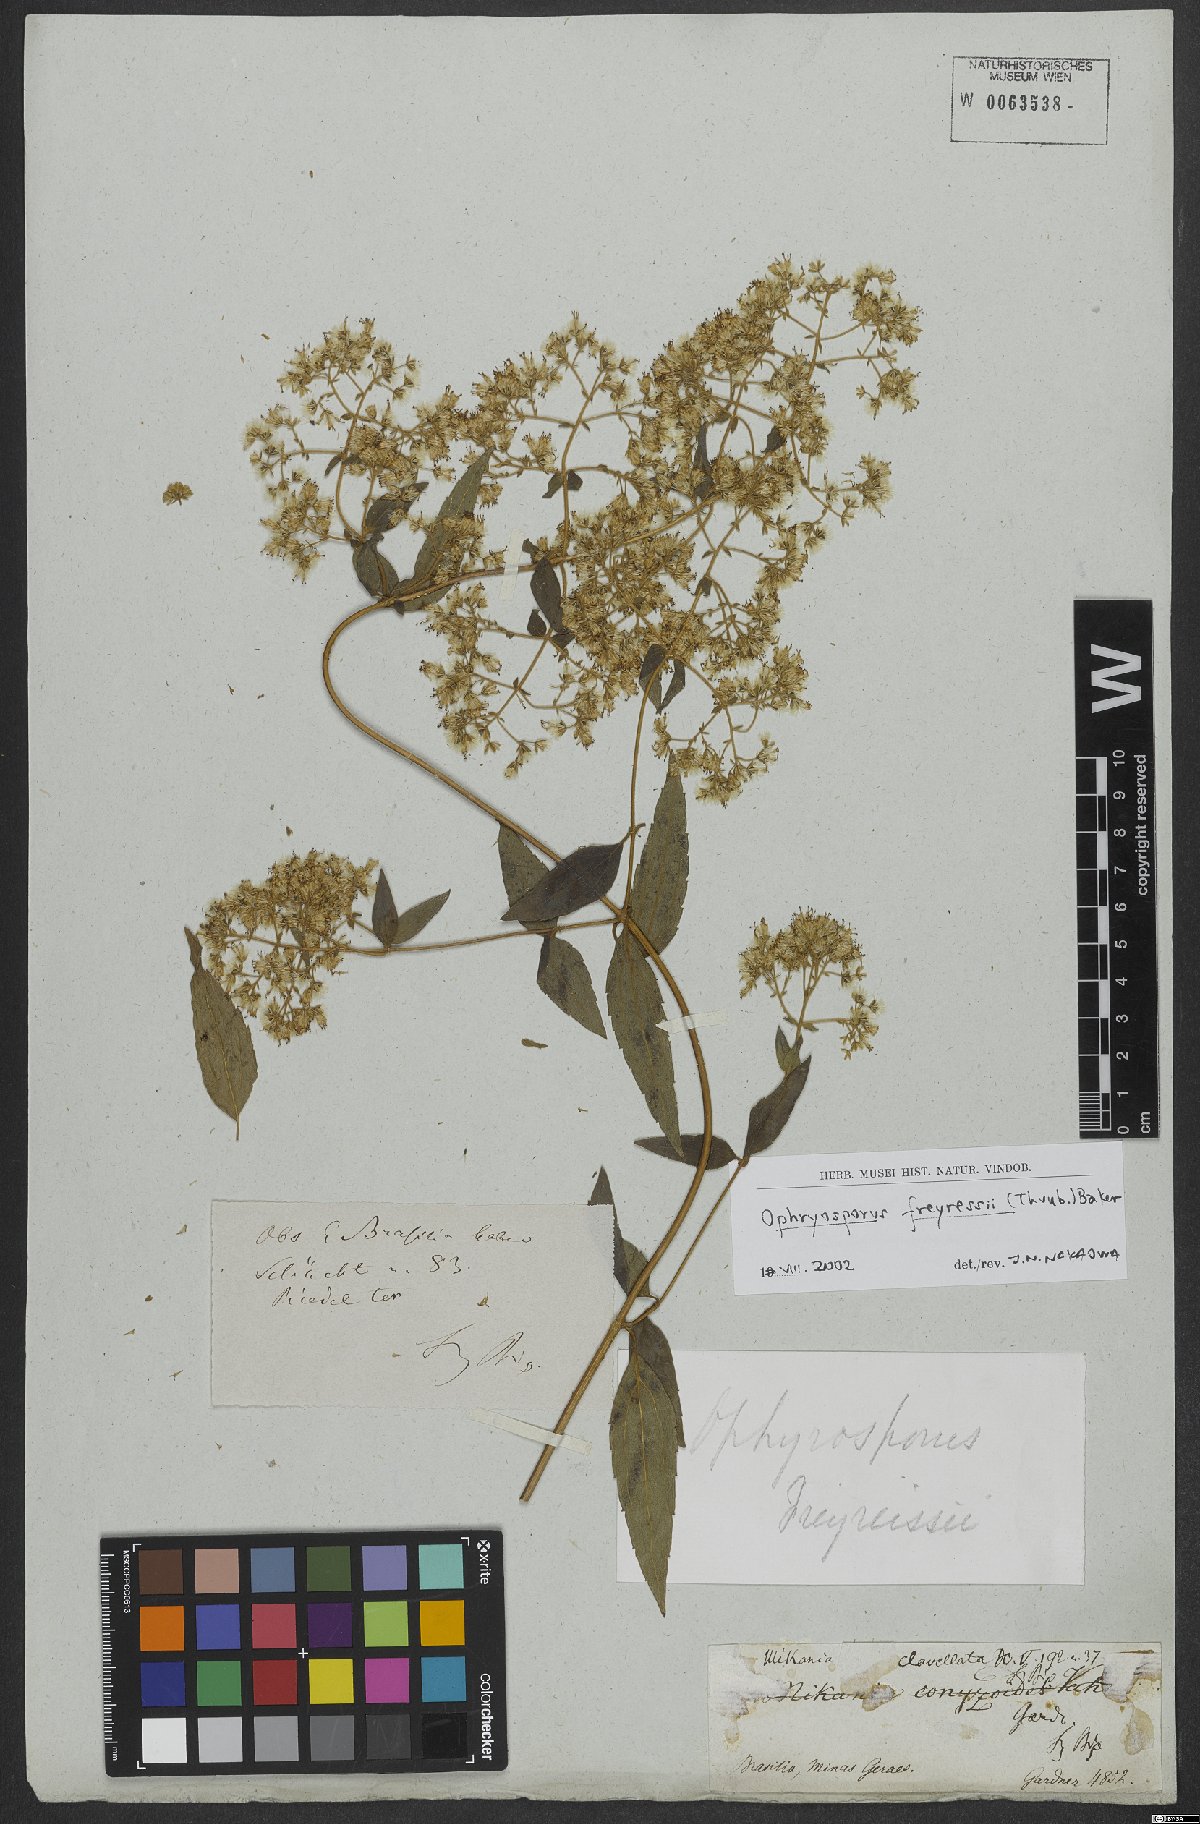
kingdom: Plantae
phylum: Tracheophyta
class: Magnoliopsida
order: Asterales
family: Asteraceae
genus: Ophryosporus
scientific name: Ophryosporus freyreysi
